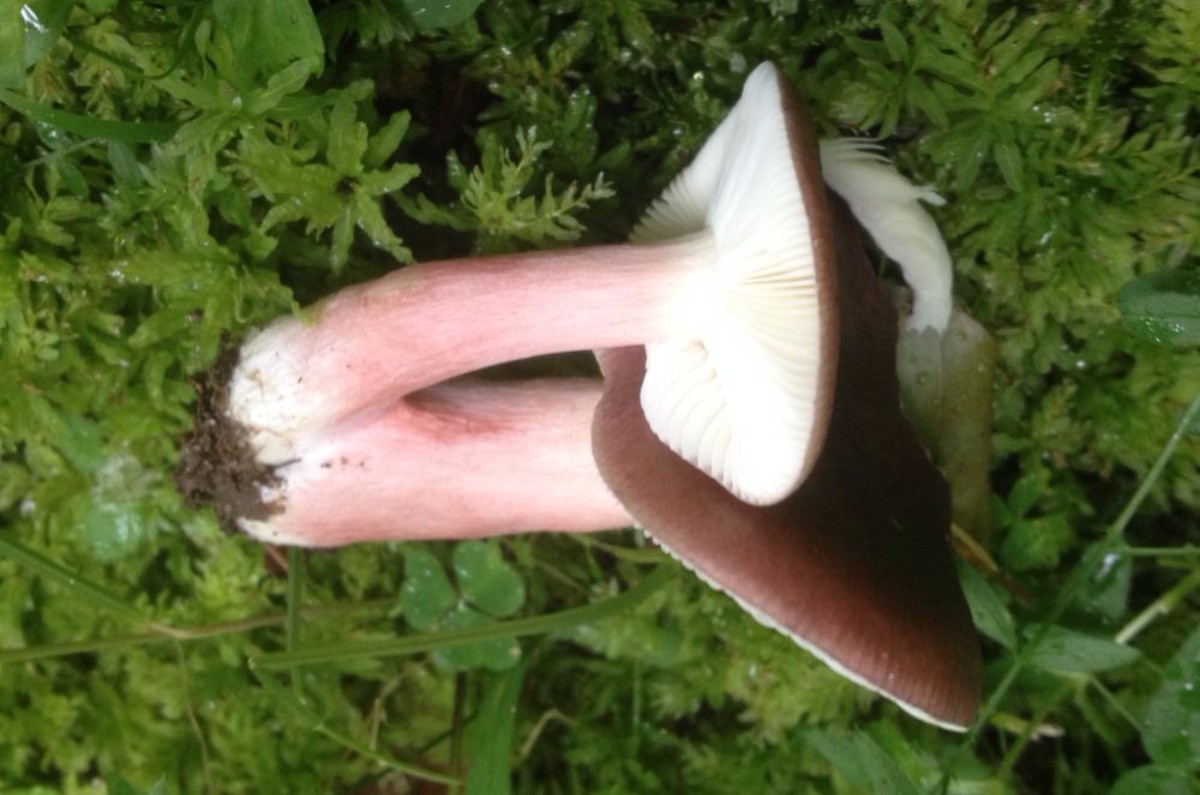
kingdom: Fungi
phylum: Basidiomycota
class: Agaricomycetes
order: Russulales
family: Russulaceae
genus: Russula
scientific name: Russula queletii
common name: Quélets skørhat
